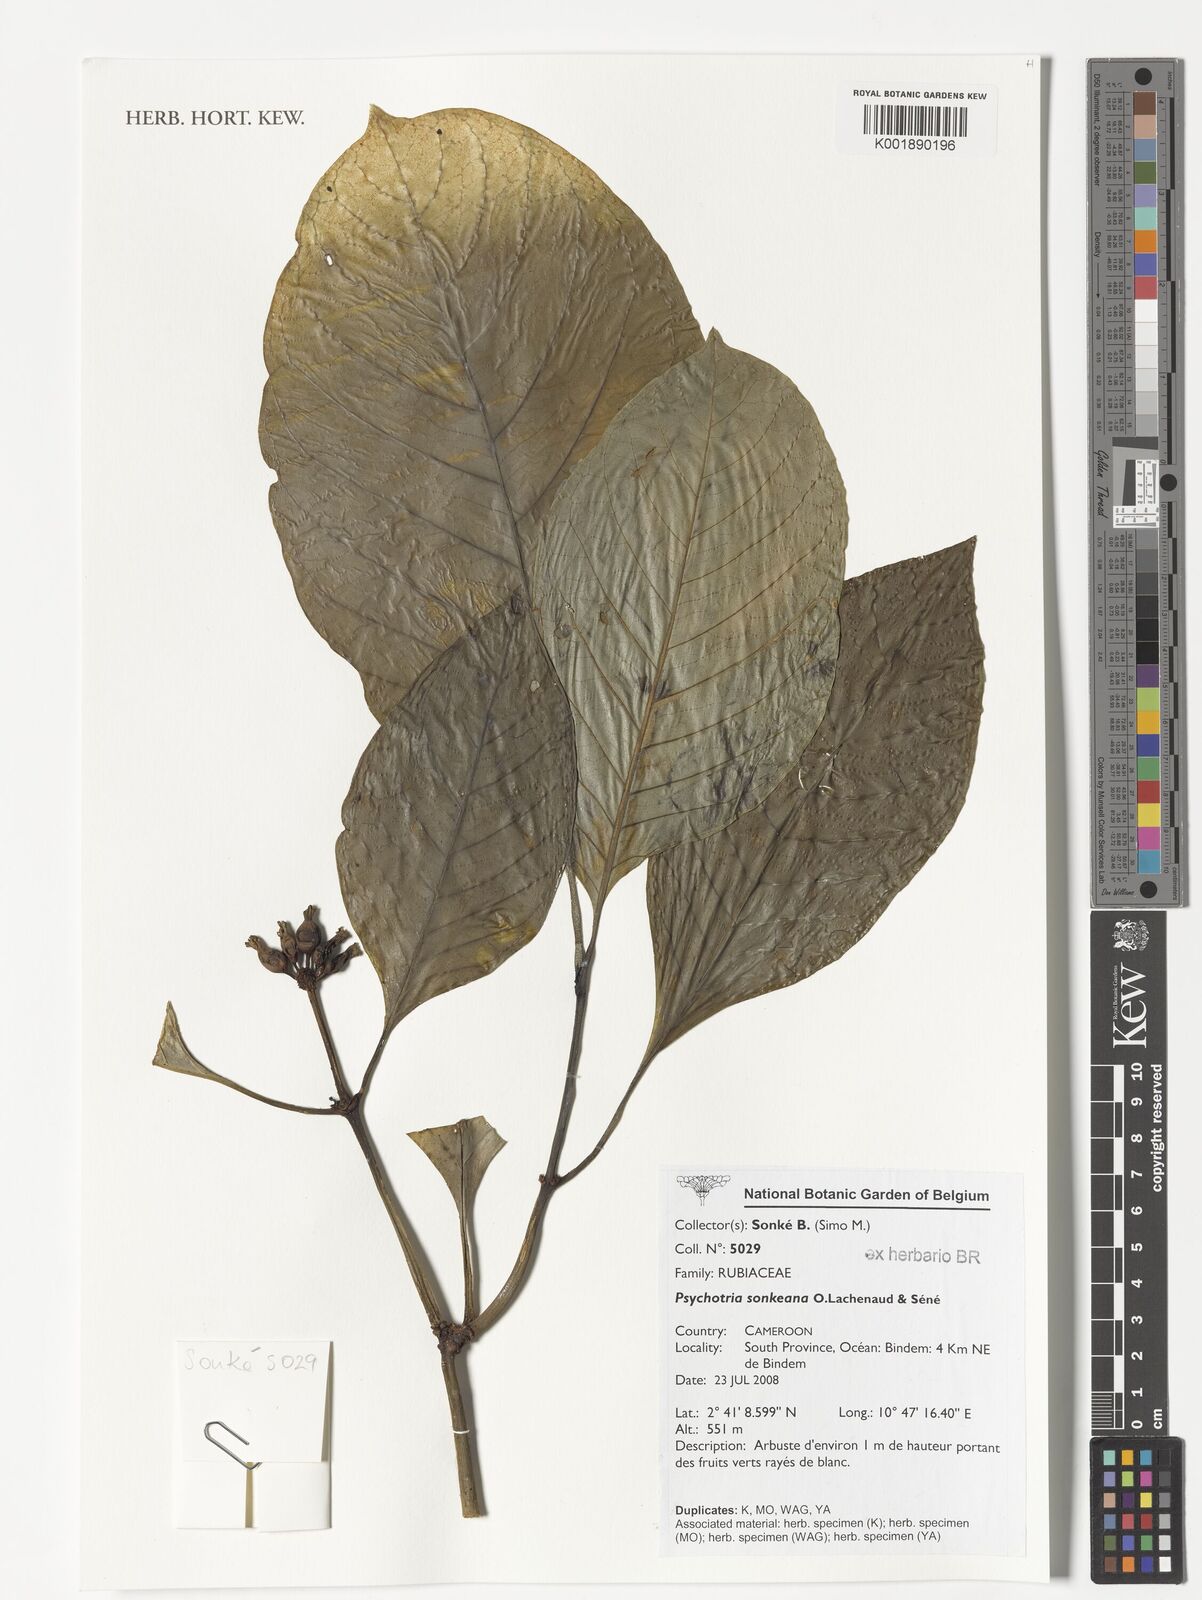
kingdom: Plantae
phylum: Tracheophyta
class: Magnoliopsida
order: Gentianales
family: Rubiaceae
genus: Psychotria
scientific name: Psychotria sonkeana
